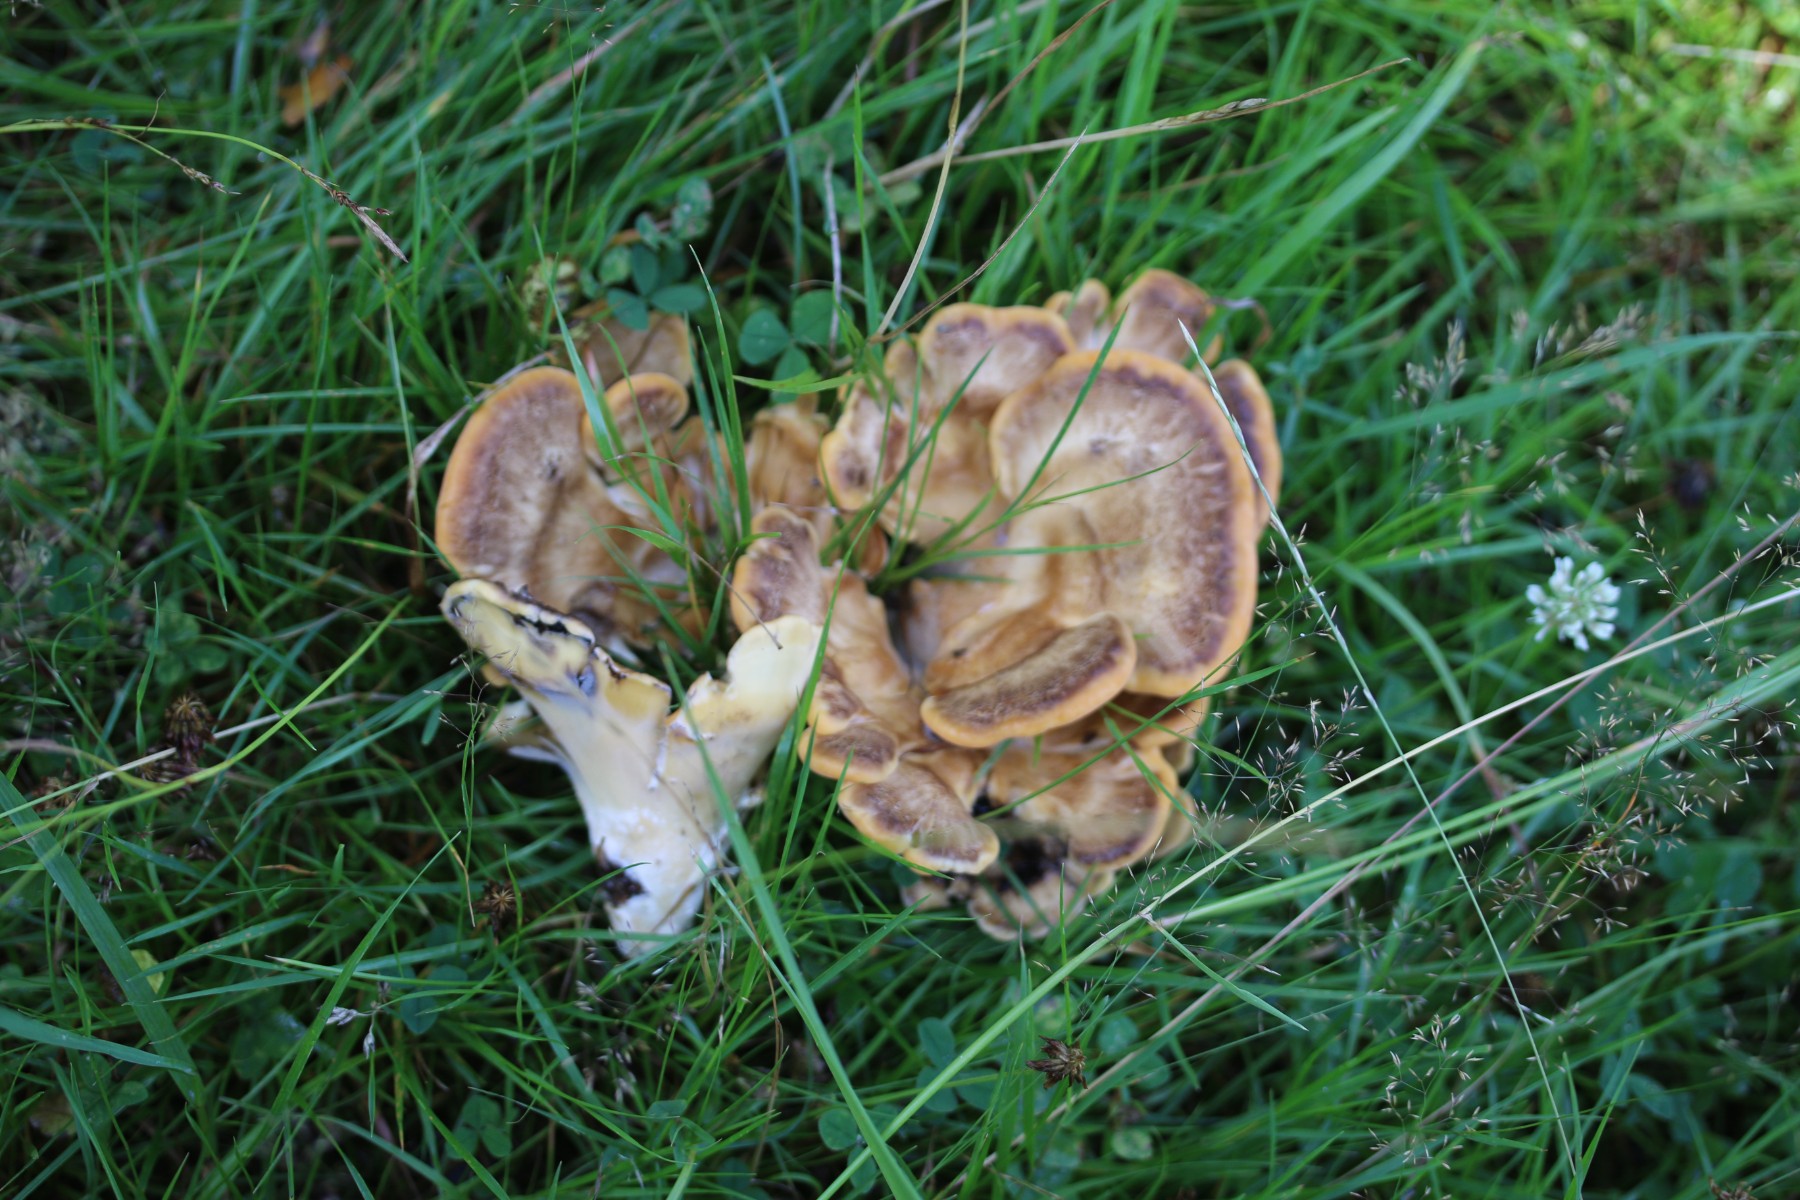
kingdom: Fungi
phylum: Basidiomycota
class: Agaricomycetes
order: Polyporales
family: Meripilaceae
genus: Meripilus
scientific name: Meripilus giganteus
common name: kæmpeporesvamp
